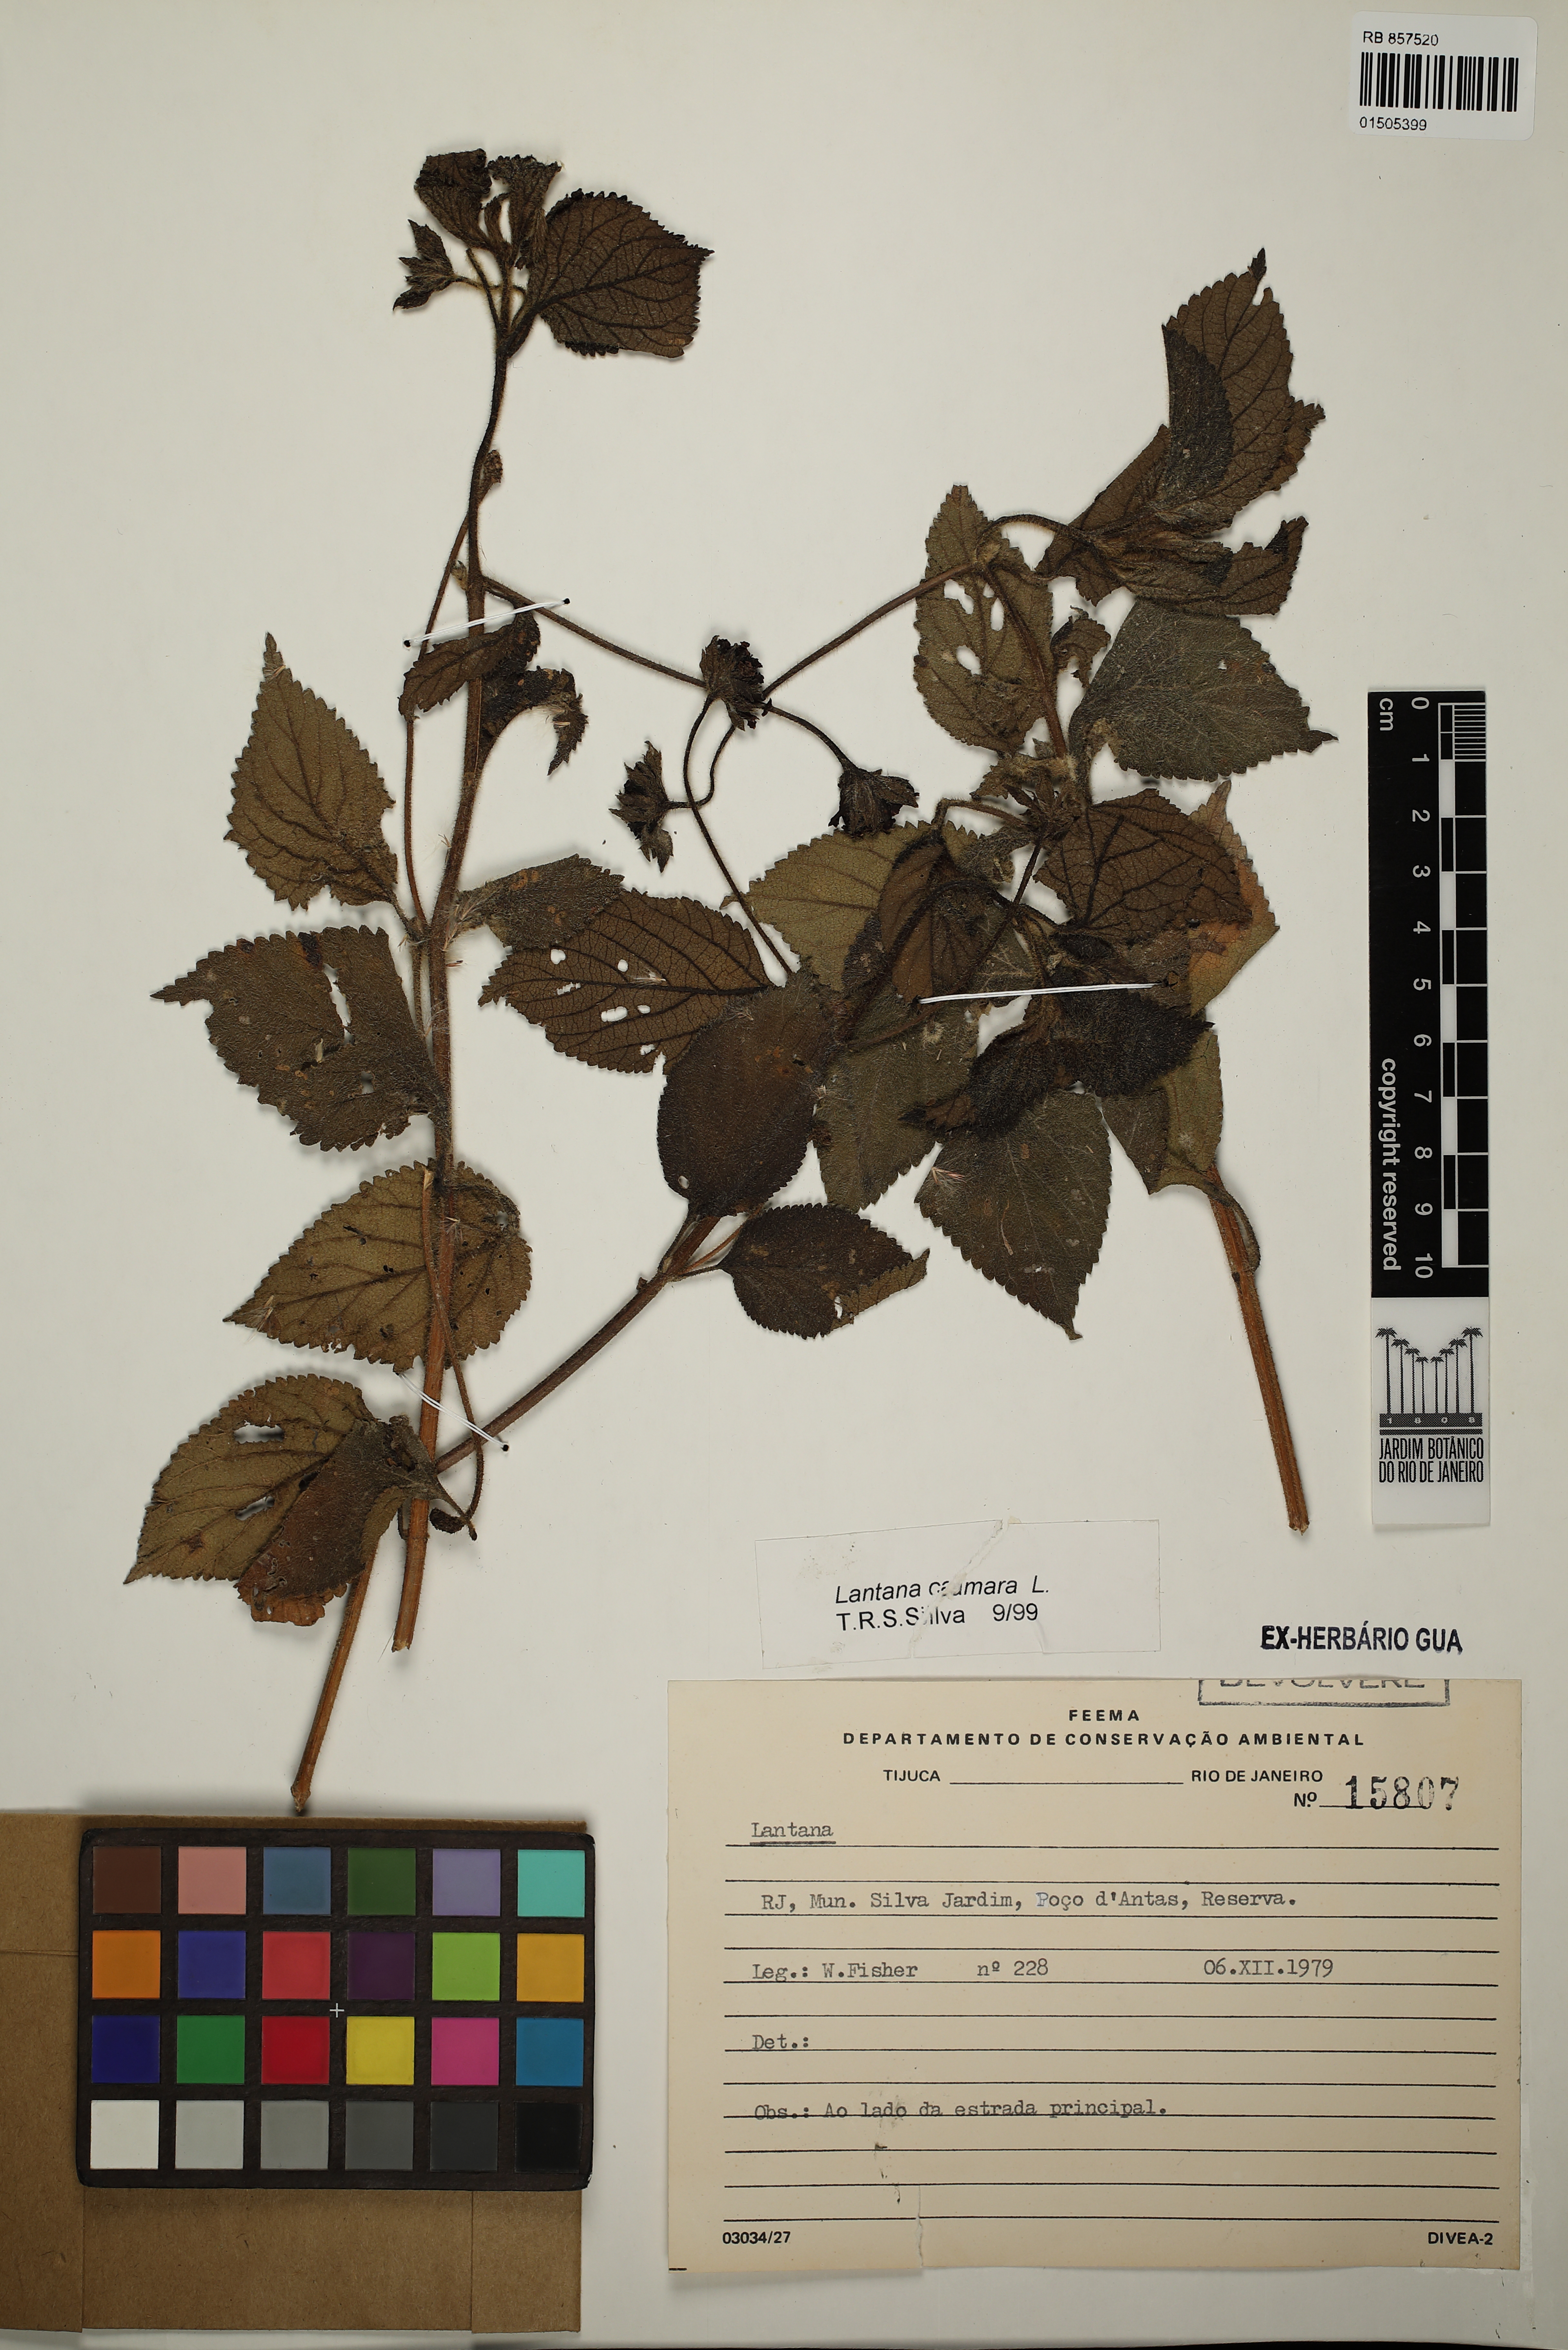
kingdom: Plantae
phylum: Tracheophyta
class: Magnoliopsida
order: Lamiales
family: Verbenaceae
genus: Lantana
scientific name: Lantana camara
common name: Lantana
